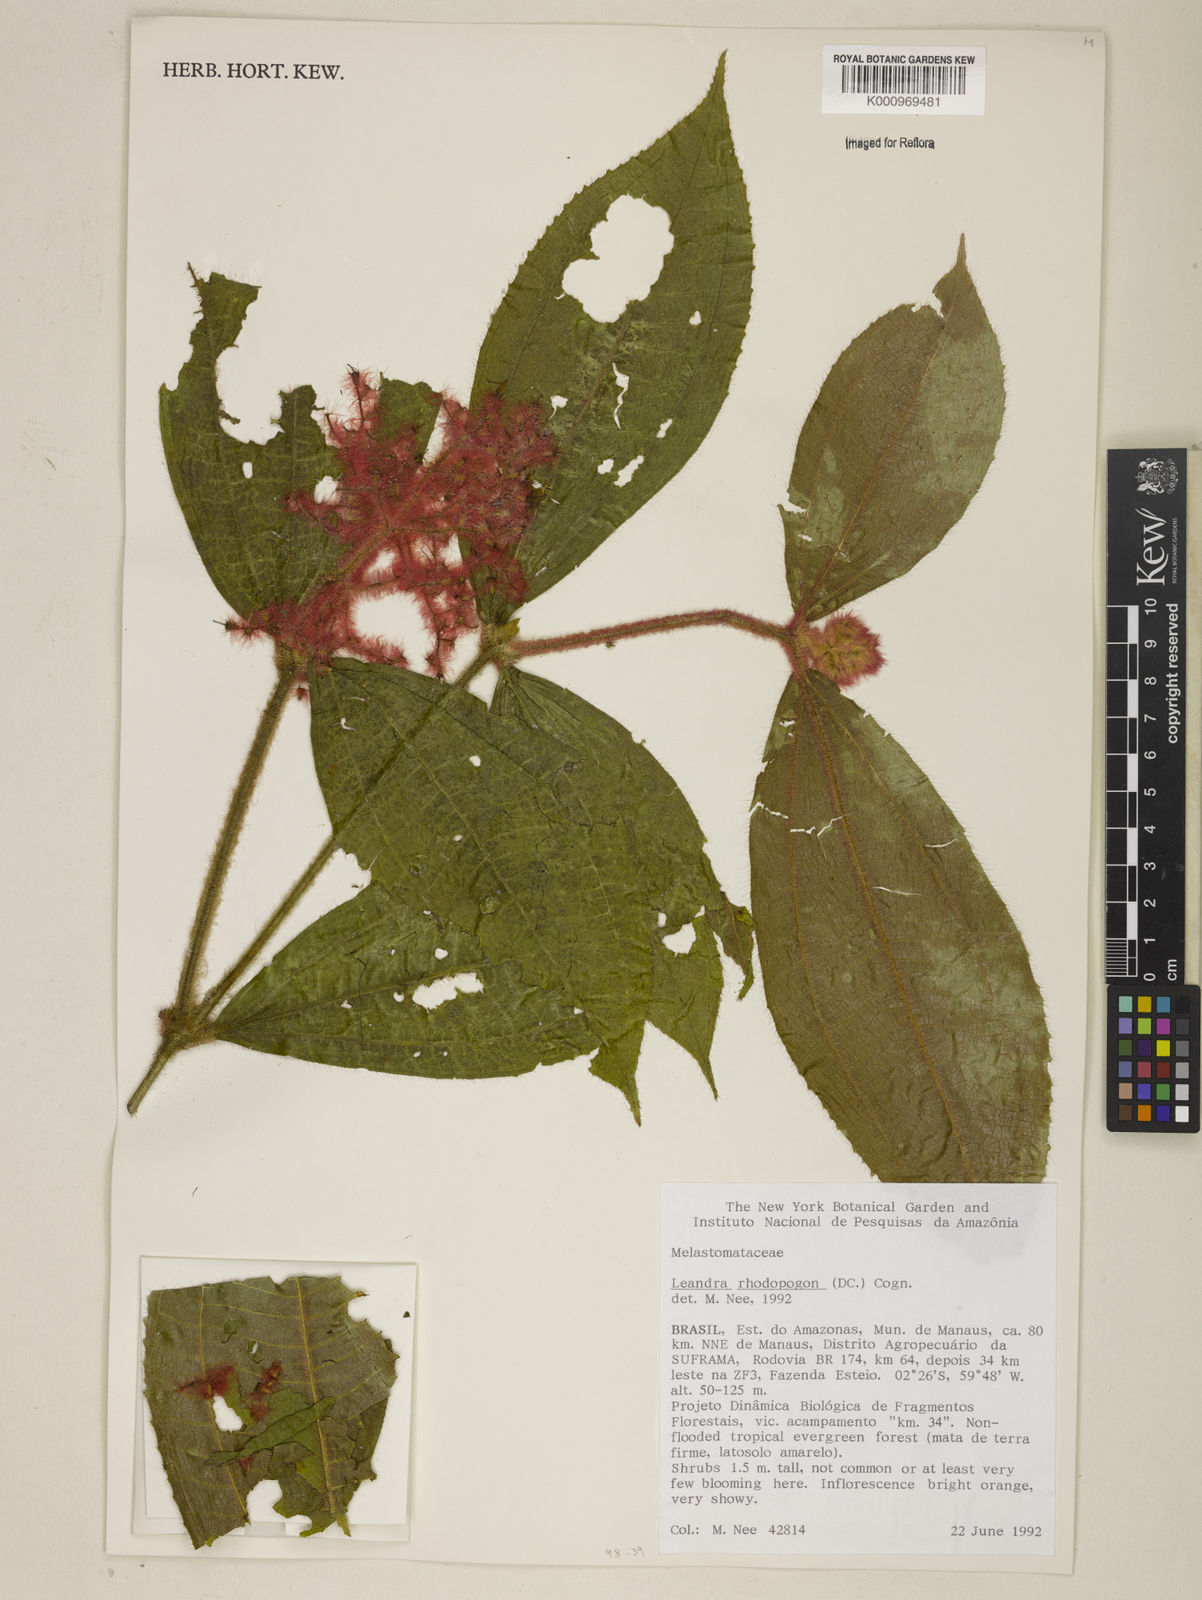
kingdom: Plantae
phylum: Tracheophyta
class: Magnoliopsida
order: Myrtales
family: Melastomataceae
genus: Miconia
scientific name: Miconia rhodopogon
